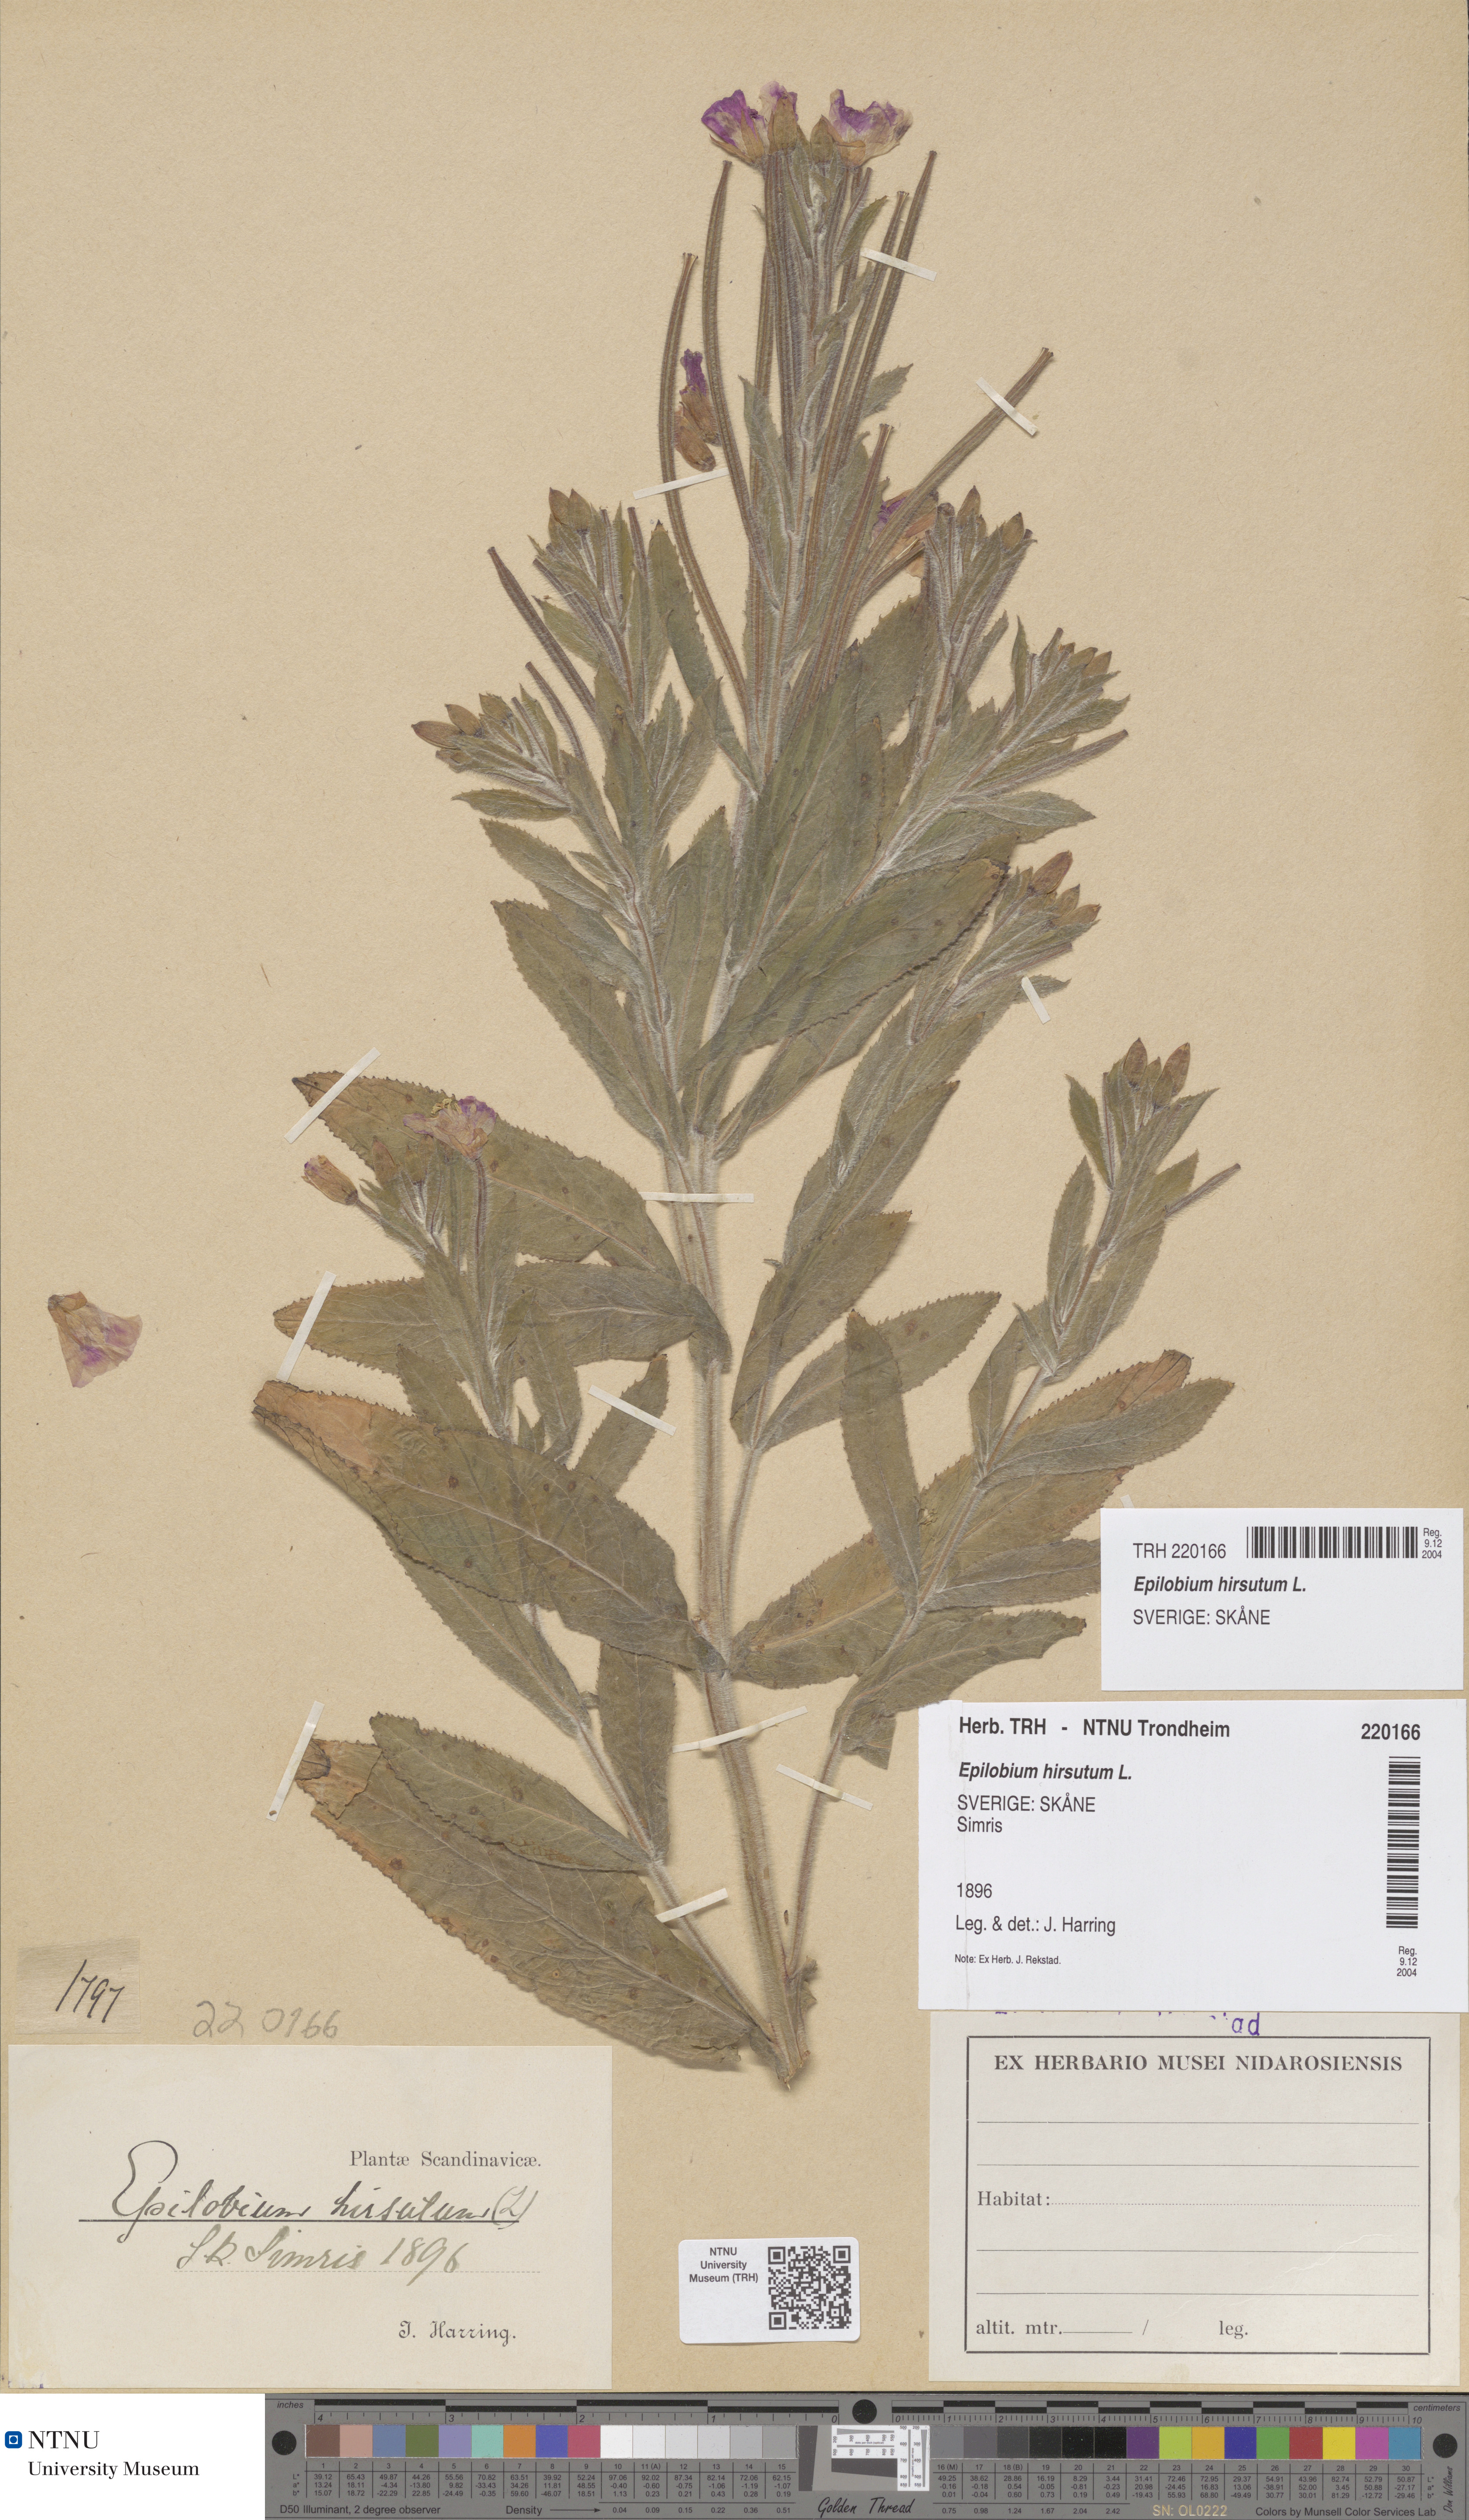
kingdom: Plantae
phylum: Tracheophyta
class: Magnoliopsida
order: Myrtales
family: Onagraceae
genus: Epilobium
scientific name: Epilobium hirsutum
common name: Great willowherb
